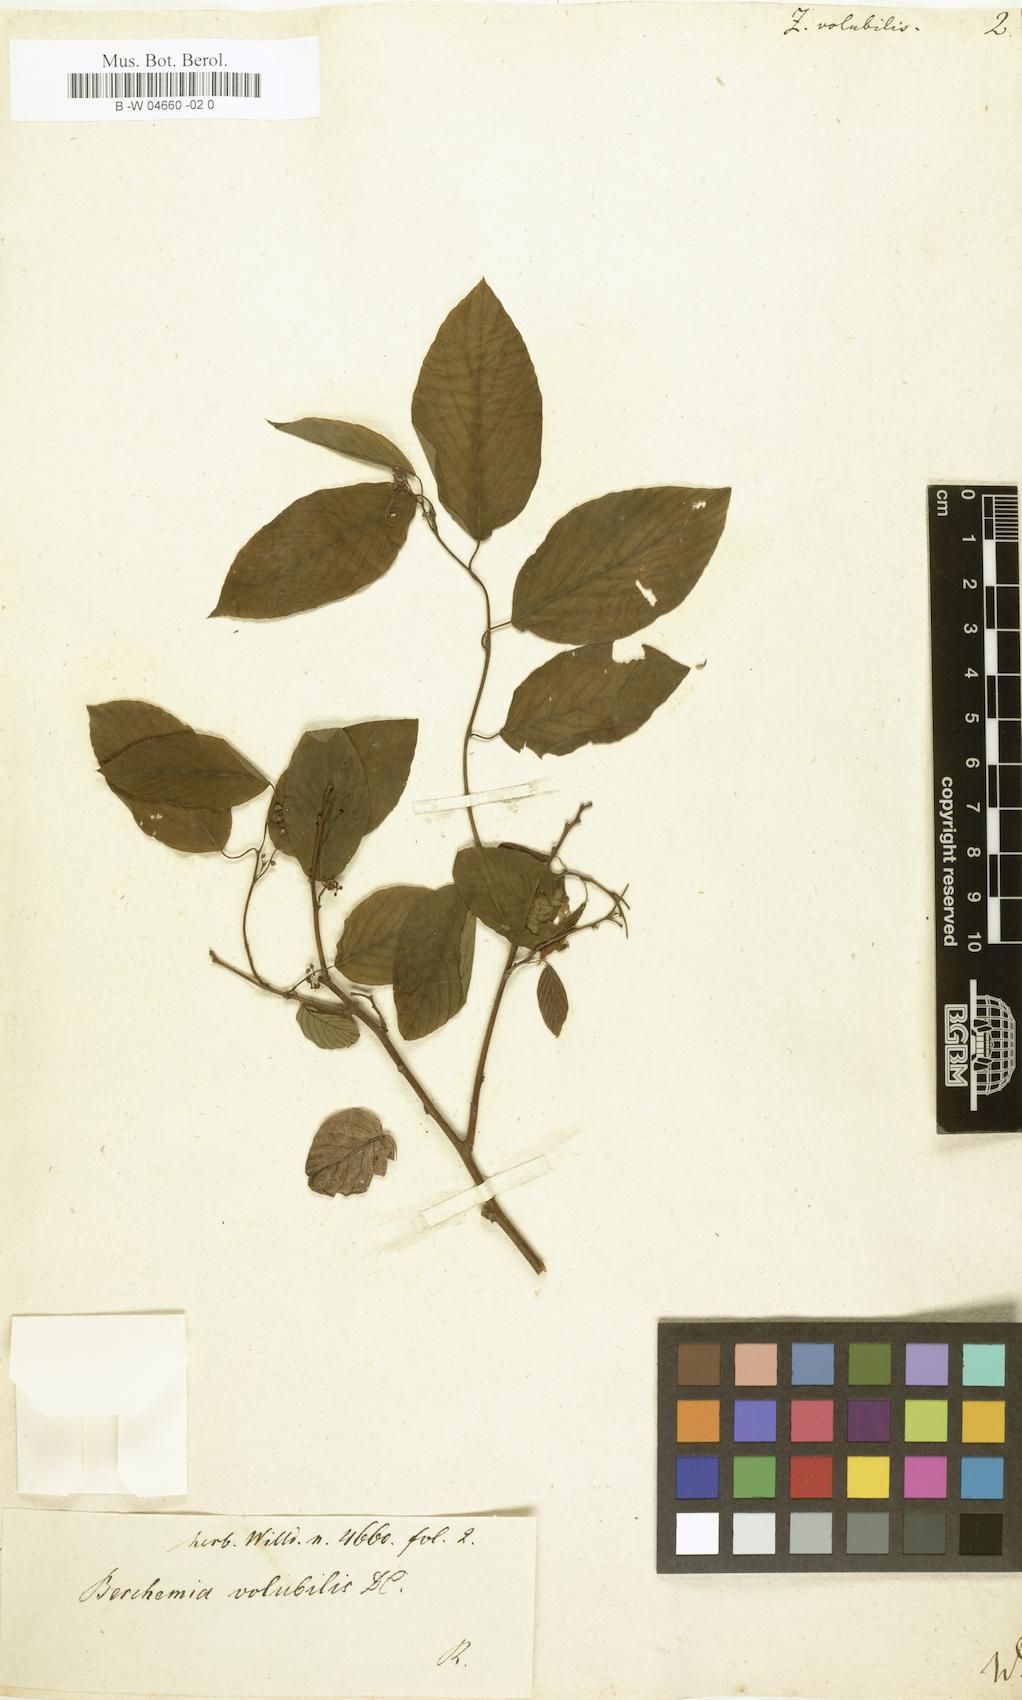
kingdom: Plantae
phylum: Tracheophyta
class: Magnoliopsida
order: Rosales
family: Rhamnaceae
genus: Berchemia
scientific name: Berchemia scandens
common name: Supplejack
